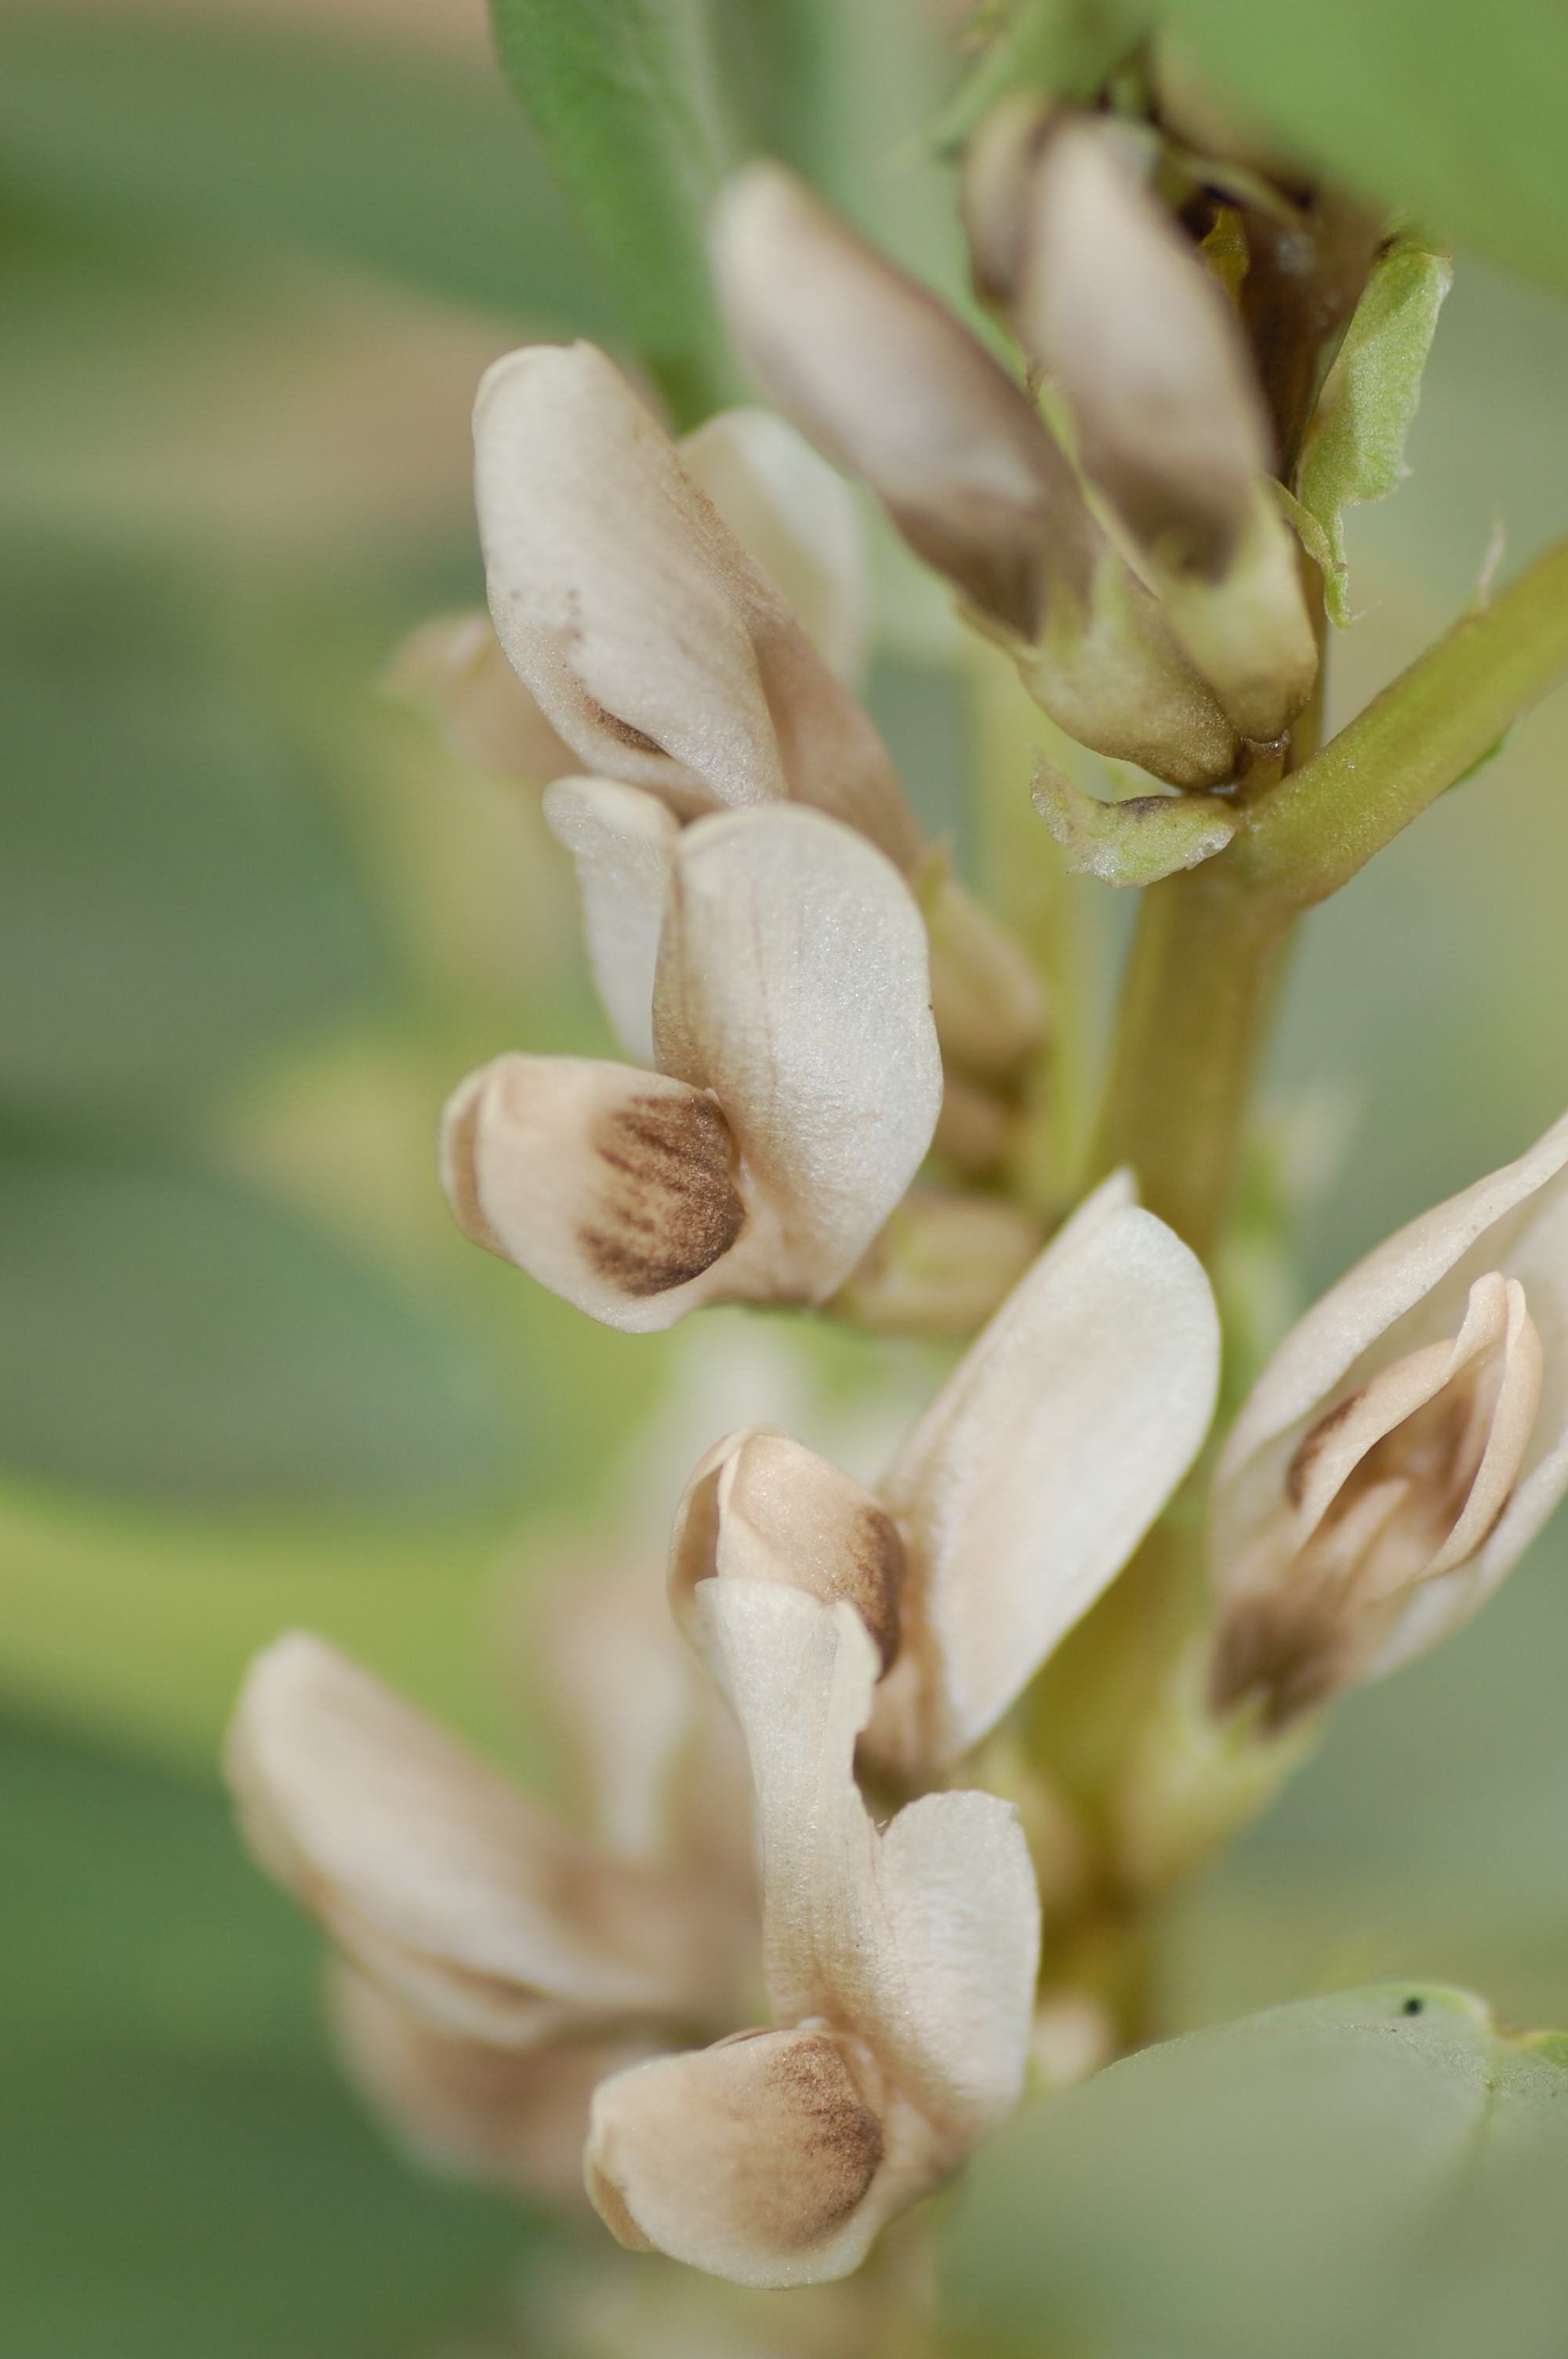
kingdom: Plantae
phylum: Tracheophyta
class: Magnoliopsida
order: Fabales
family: Fabaceae
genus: Vicia
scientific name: Vicia faba
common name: Broad bean
